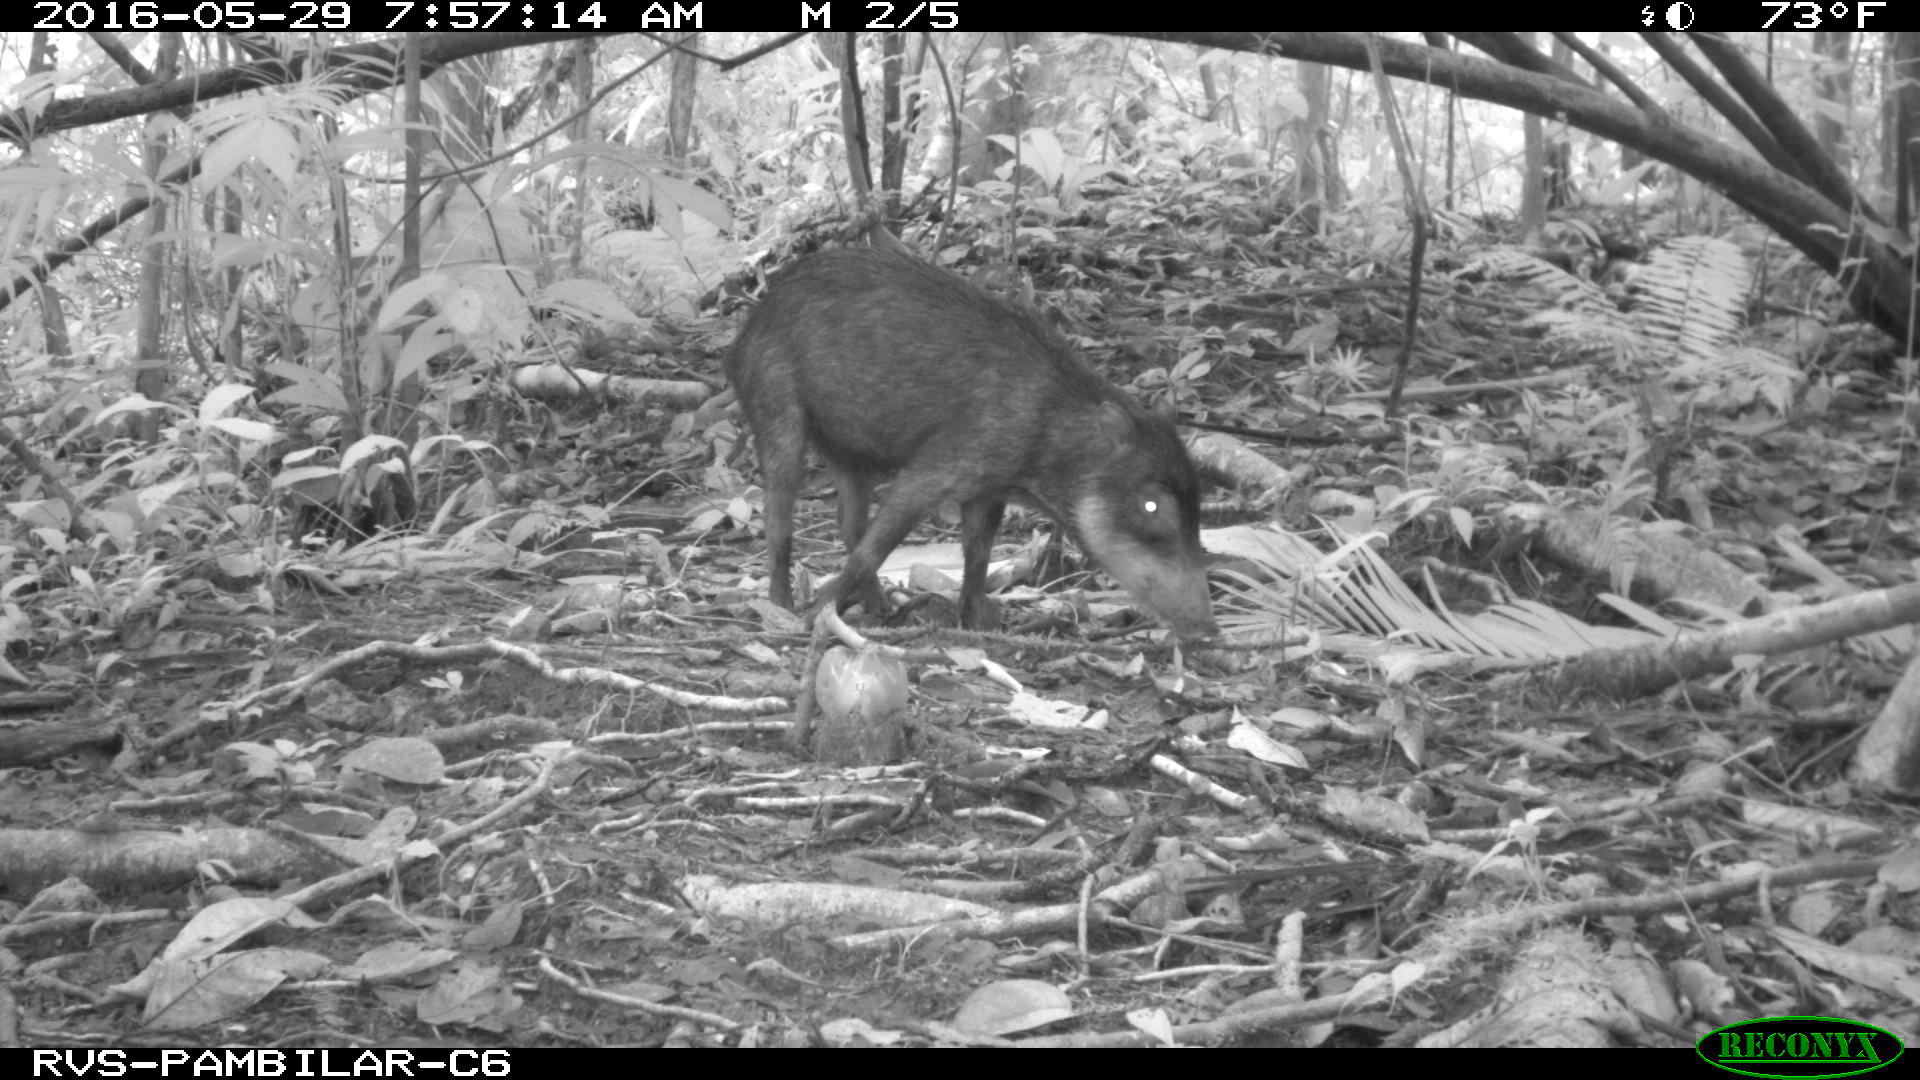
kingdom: Animalia
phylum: Chordata
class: Mammalia
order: Artiodactyla
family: Tayassuidae
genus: Tayassu
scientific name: Tayassu pecari
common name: White-lipped peccary
